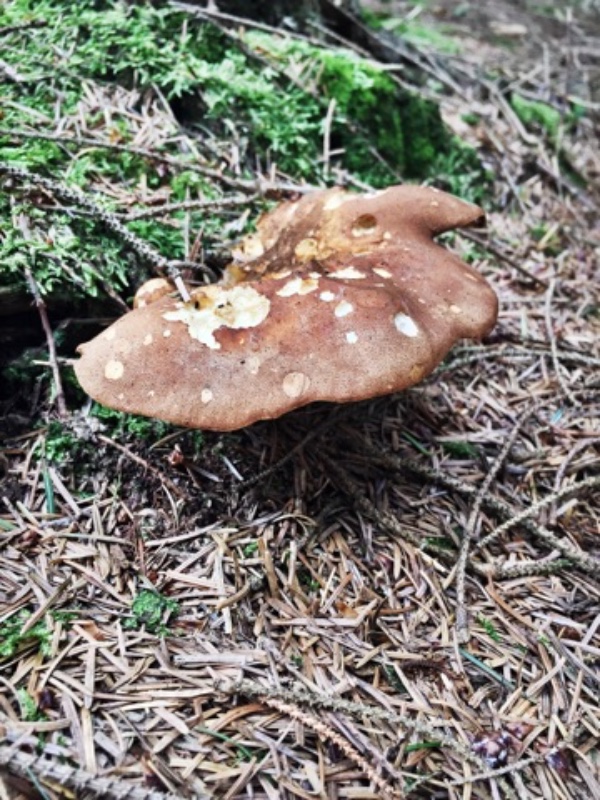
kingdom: Fungi
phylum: Basidiomycota
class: Agaricomycetes
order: Boletales
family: Tapinellaceae
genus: Tapinella
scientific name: Tapinella atrotomentosa
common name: sortfiltet viftesvamp
